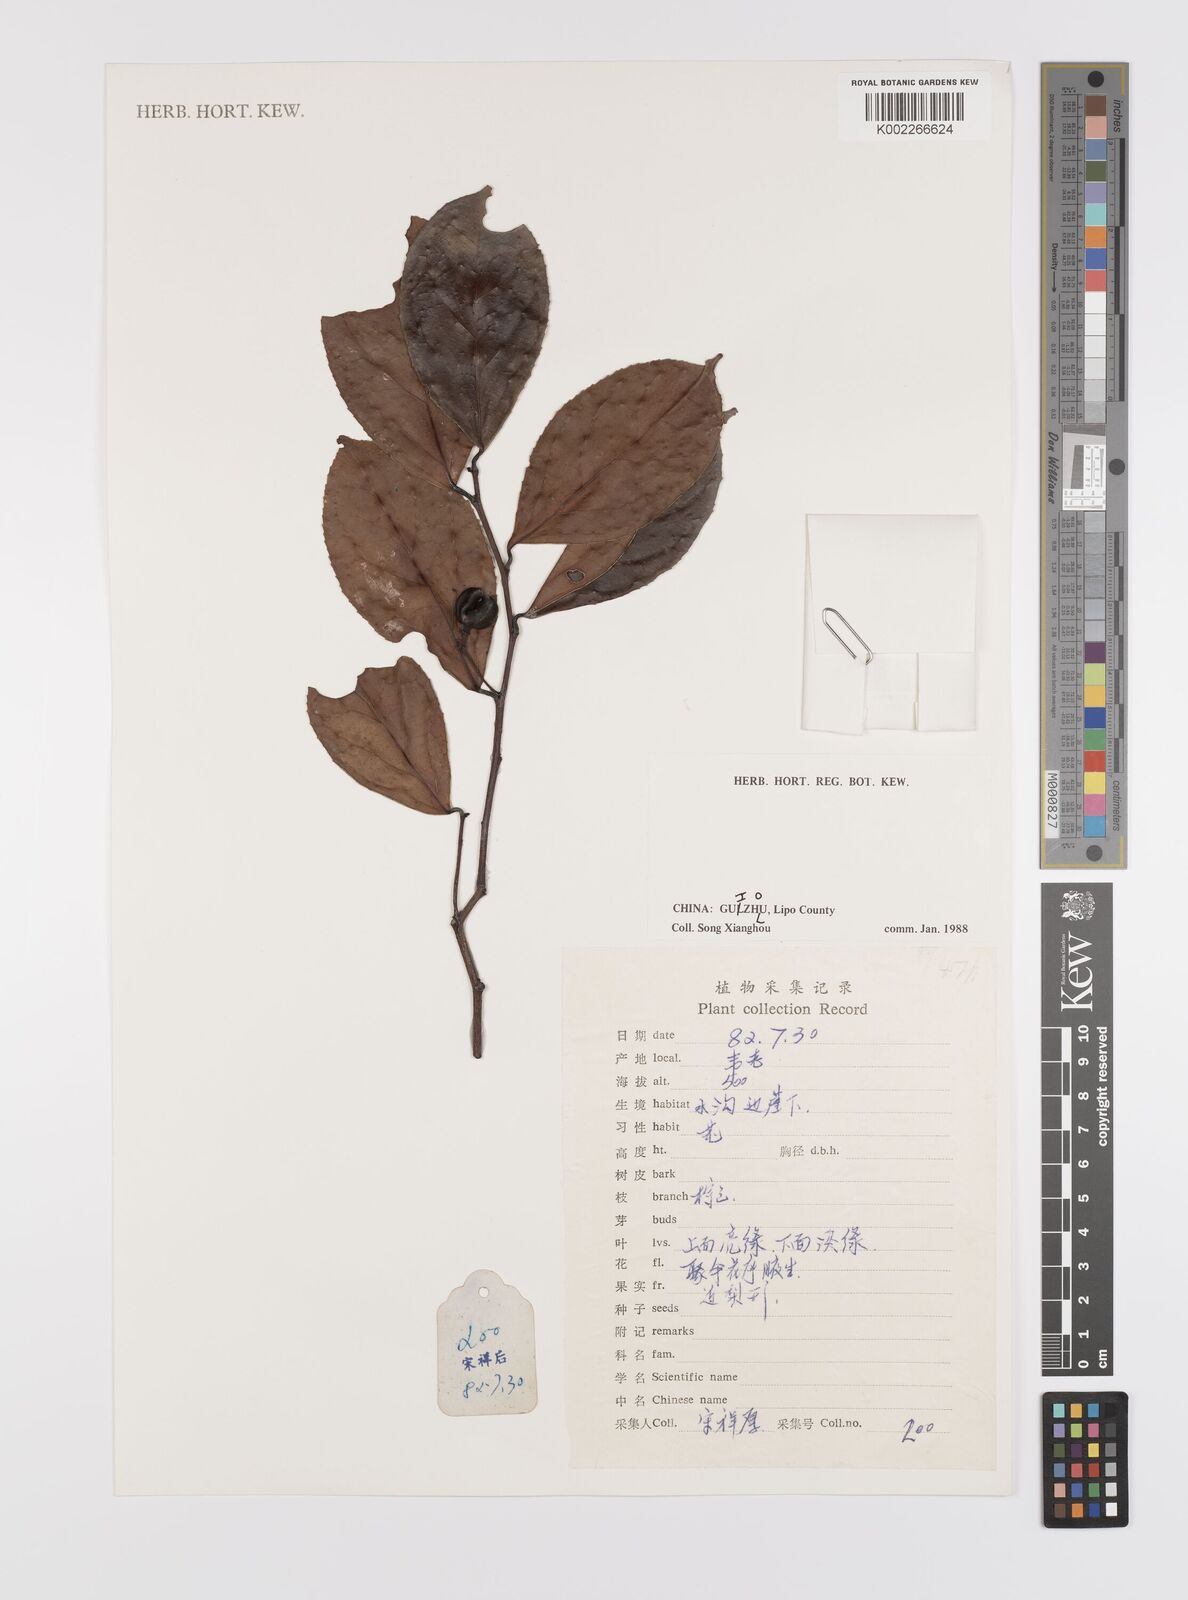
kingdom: Plantae
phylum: Tracheophyta
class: Magnoliopsida
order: Celastrales
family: Celastraceae
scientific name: Celastraceae
